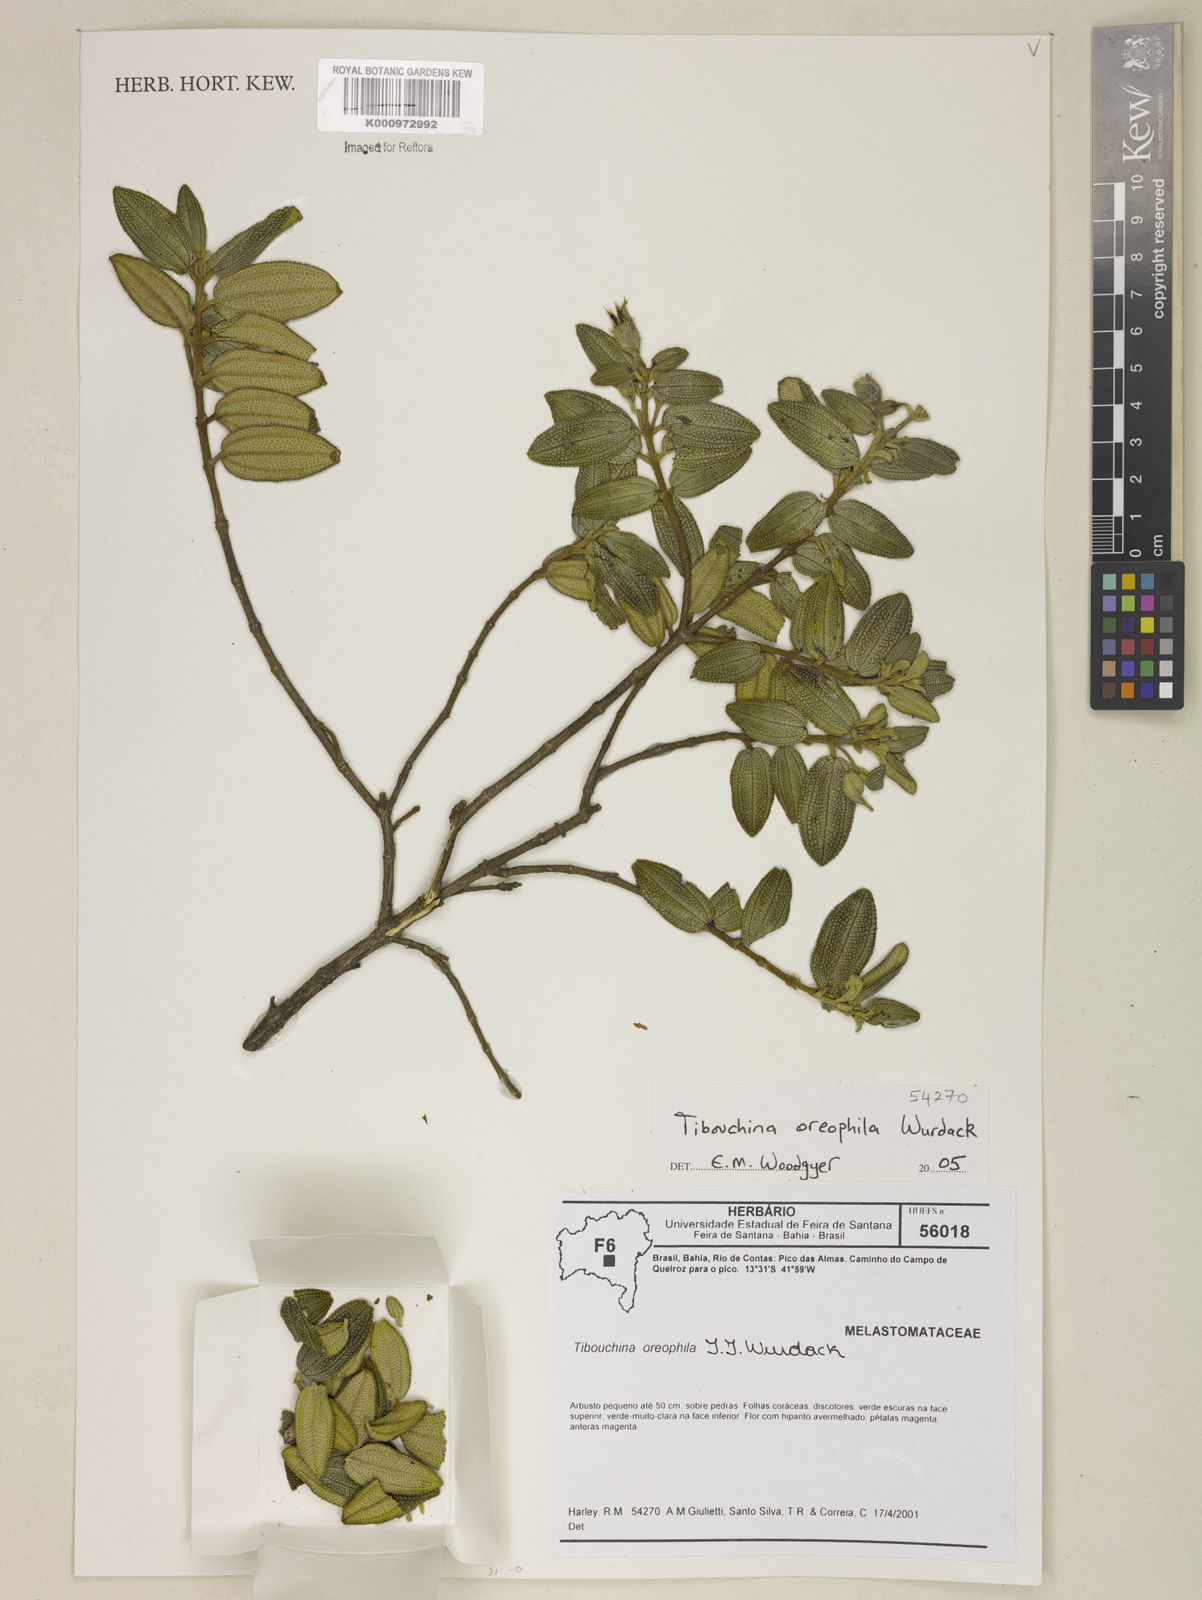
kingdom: Plantae
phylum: Tracheophyta
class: Magnoliopsida
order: Myrtales
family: Melastomataceae
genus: Pleroma
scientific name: Pleroma oreophilum
